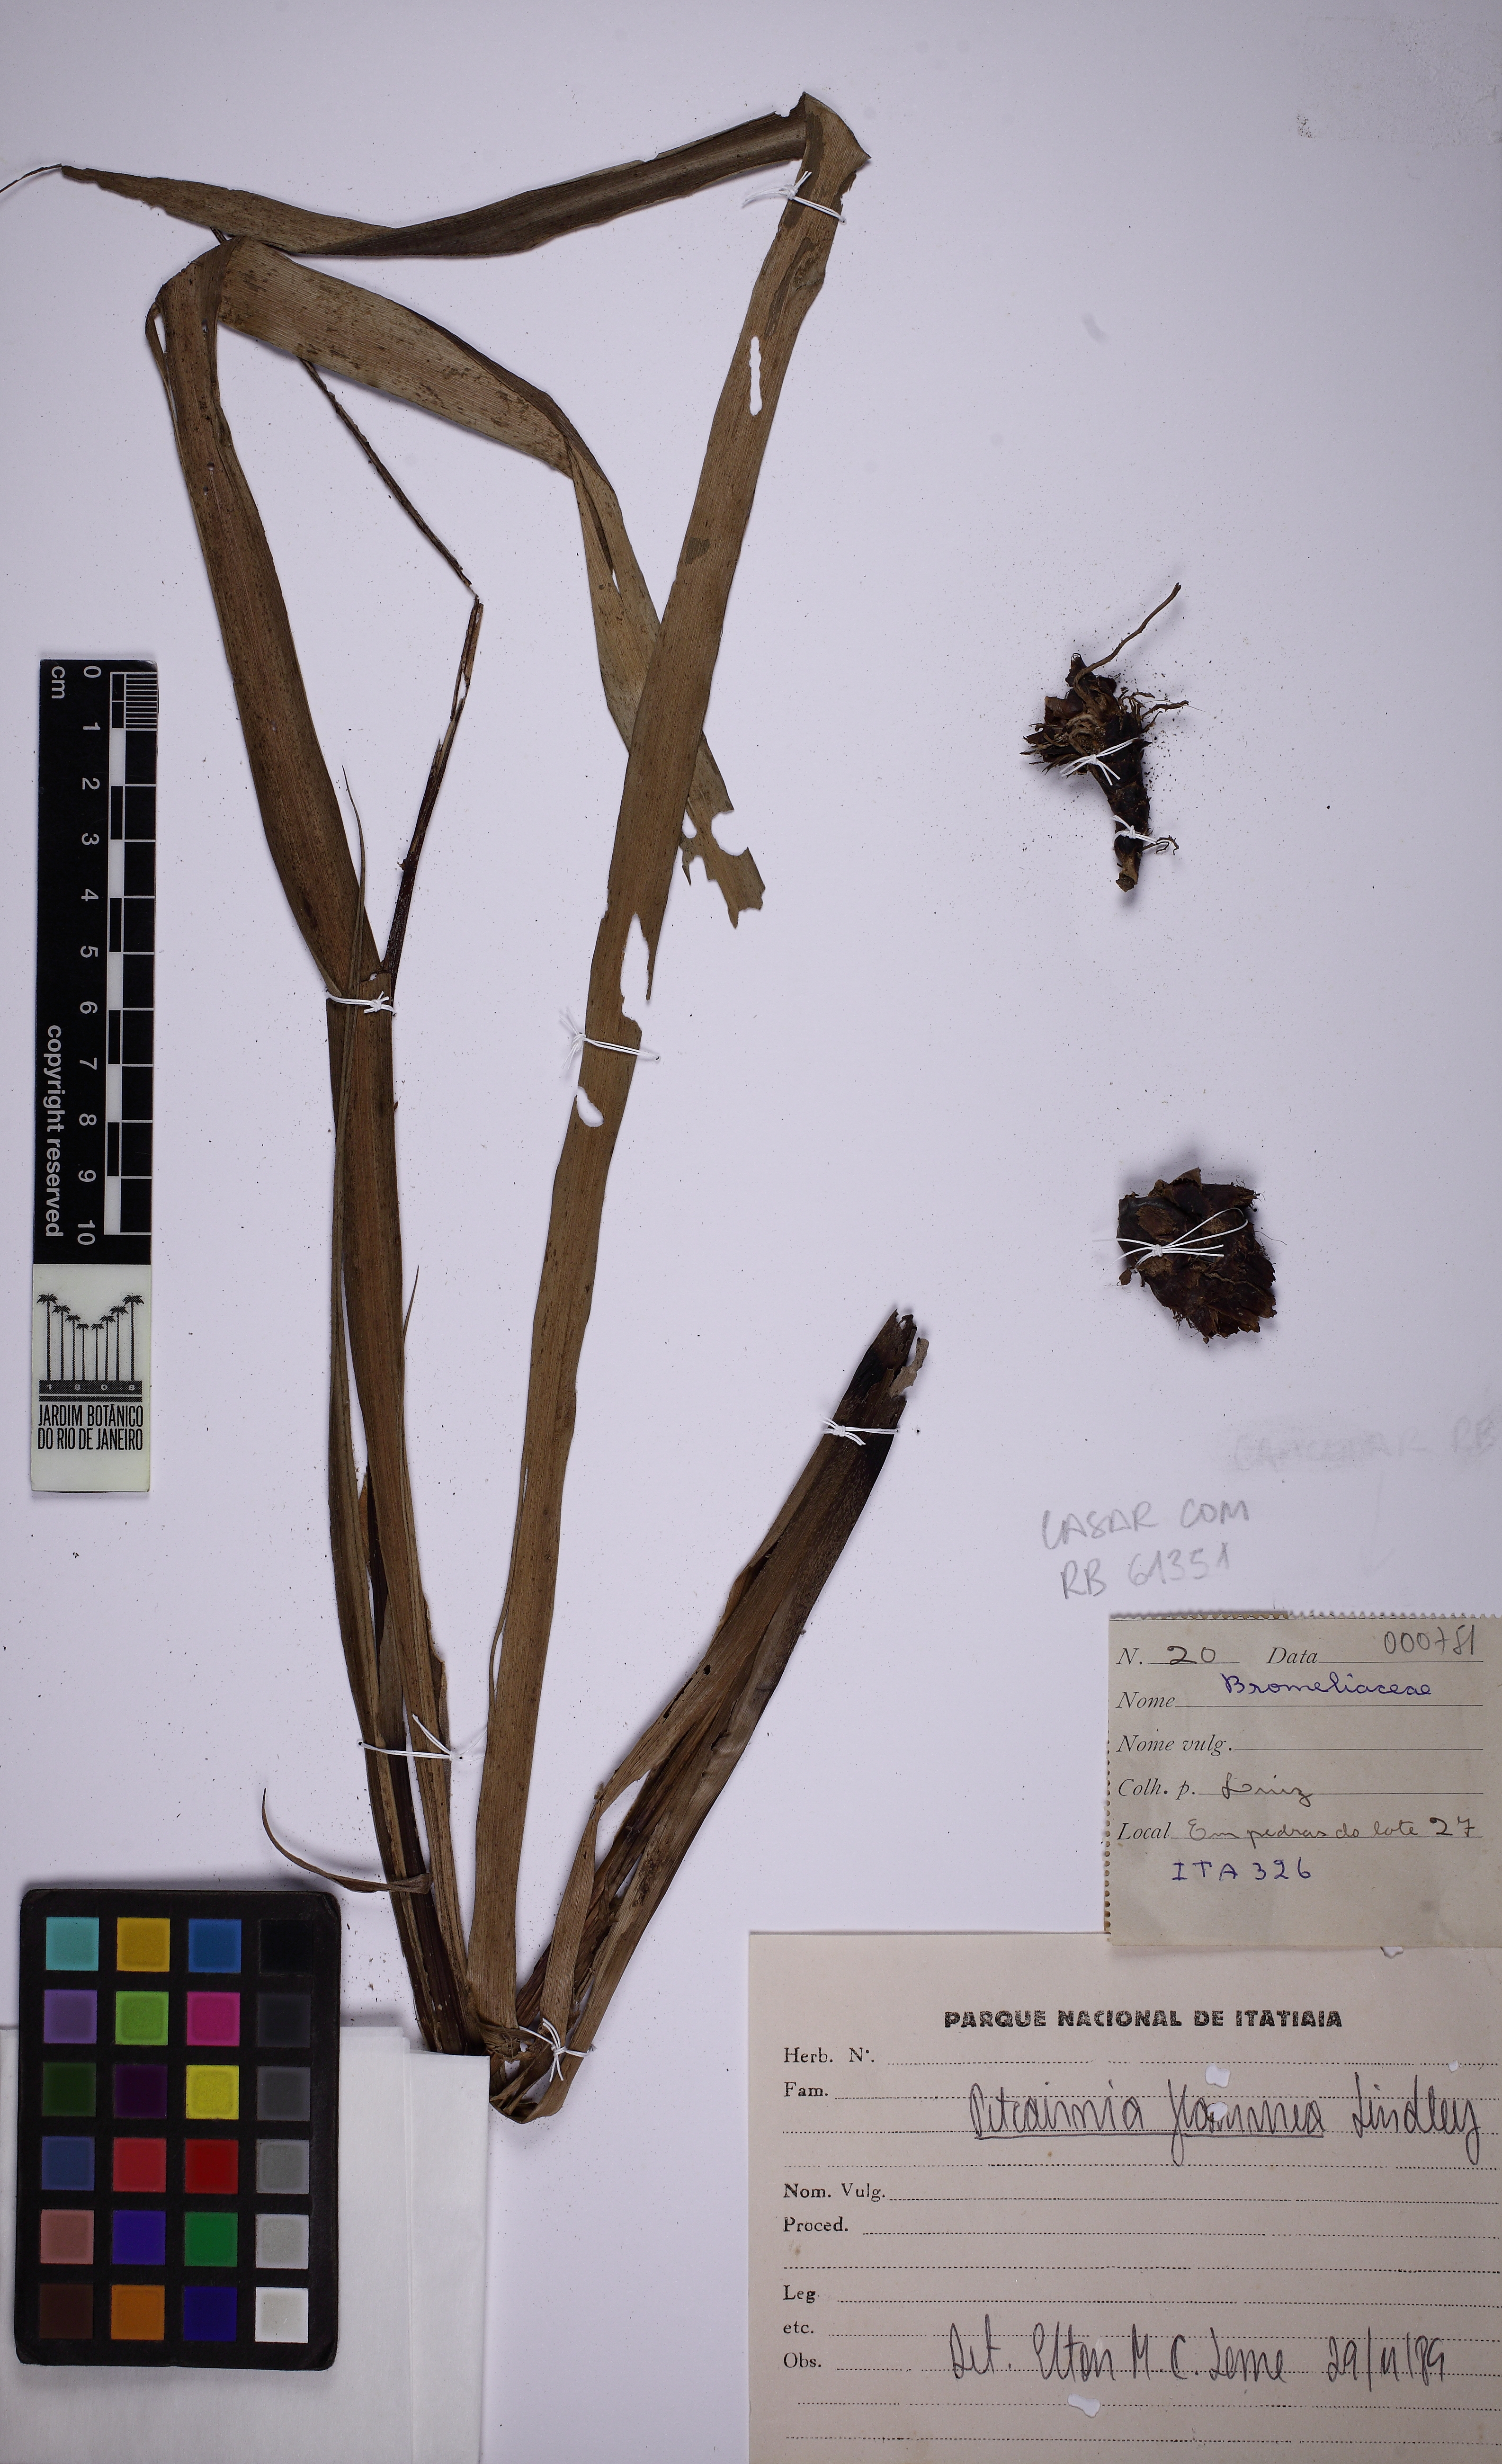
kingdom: Plantae
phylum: Tracheophyta
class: Liliopsida
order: Poales
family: Bromeliaceae
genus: Pitcairnia
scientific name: Pitcairnia flammea
